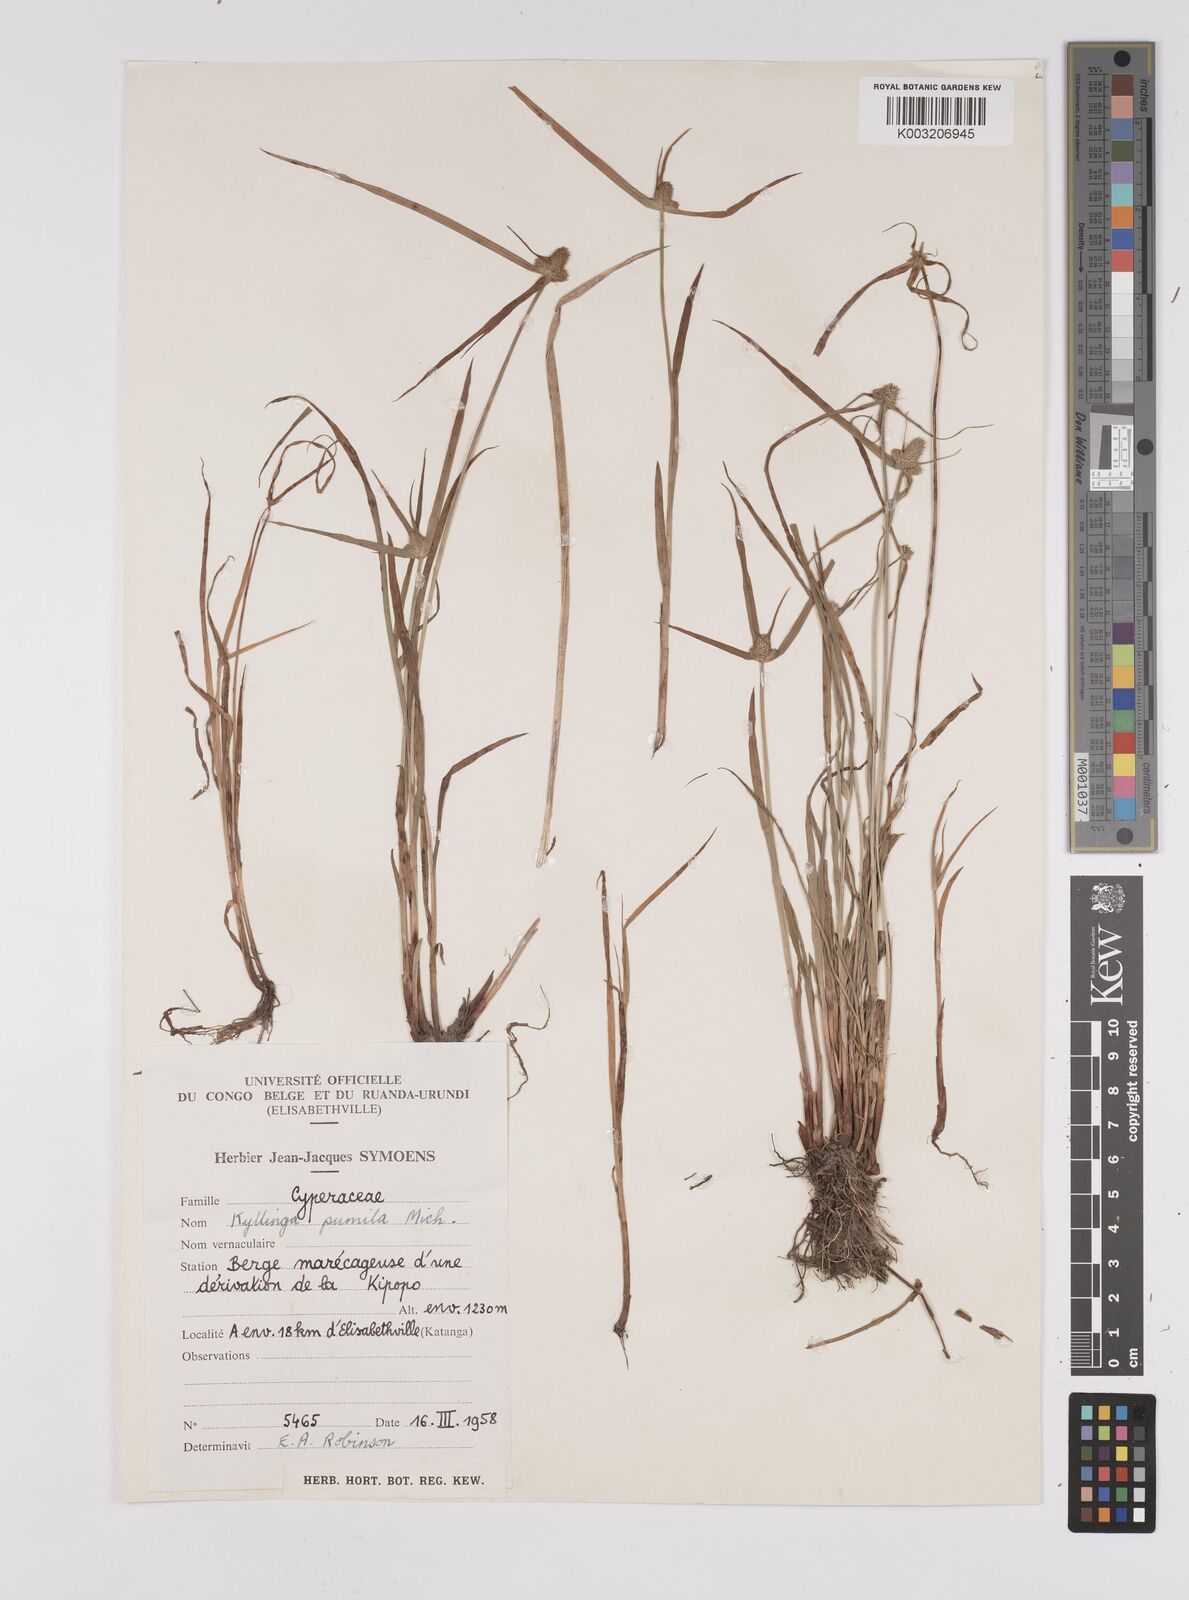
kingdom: Plantae
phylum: Tracheophyta
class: Liliopsida
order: Poales
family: Cyperaceae
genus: Cyperus
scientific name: Cyperus hortensis
